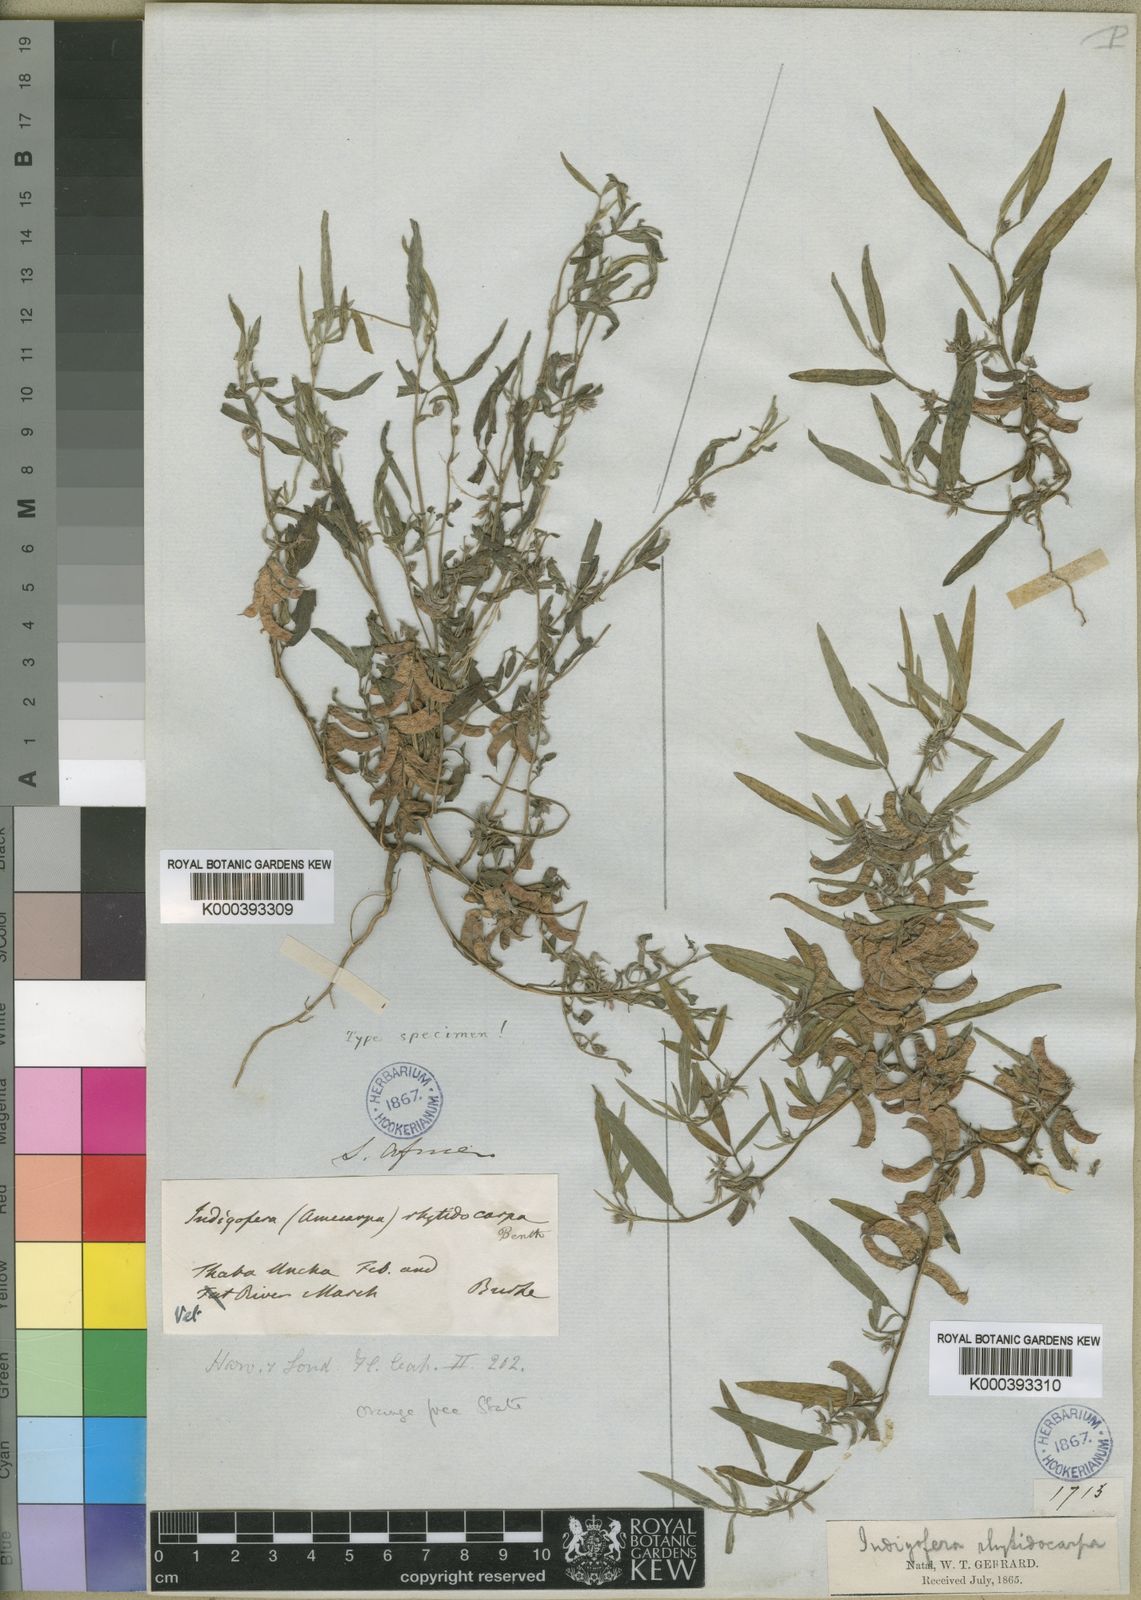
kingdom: Plantae
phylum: Tracheophyta
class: Magnoliopsida
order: Fabales
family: Fabaceae
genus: Indigofera
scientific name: Indigofera rhytidocarpa
